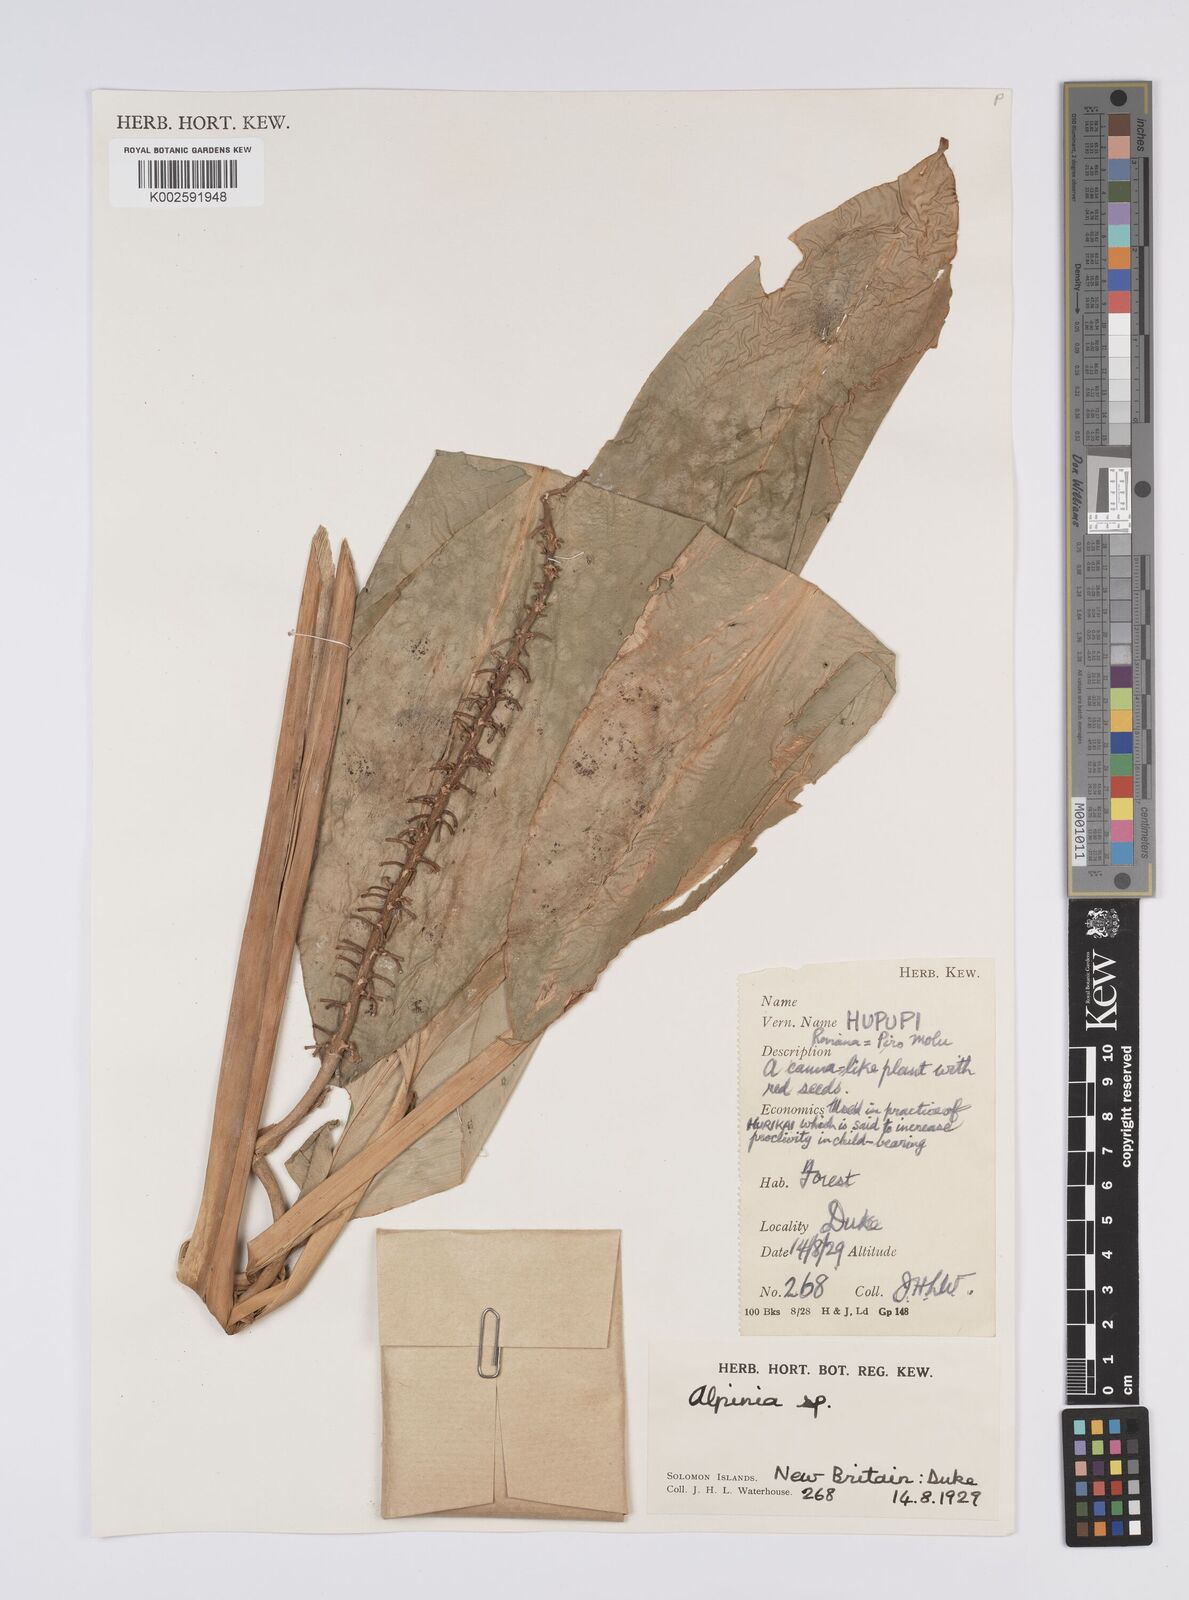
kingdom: Plantae
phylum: Tracheophyta
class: Liliopsida
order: Zingiberales
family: Zingiberaceae
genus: Alpinia
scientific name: Alpinia
